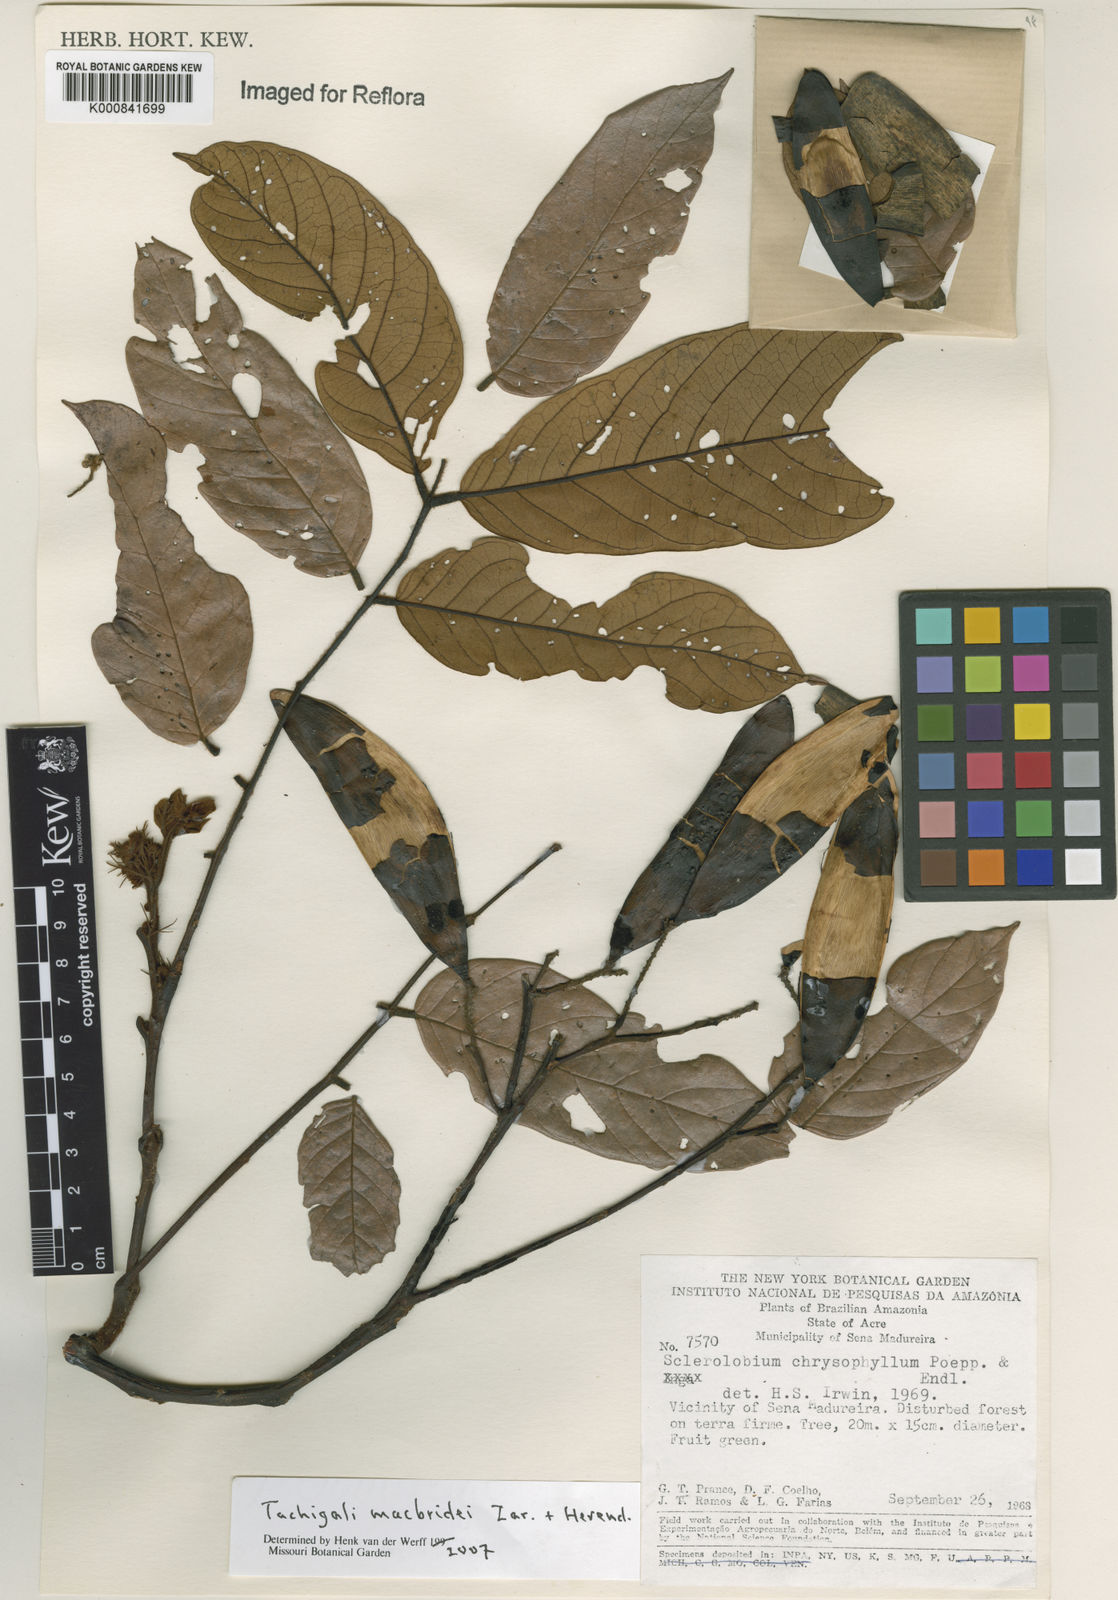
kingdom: Plantae
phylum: Tracheophyta
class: Magnoliopsida
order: Fabales
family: Fabaceae
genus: Tachigali
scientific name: Tachigali macbridei
